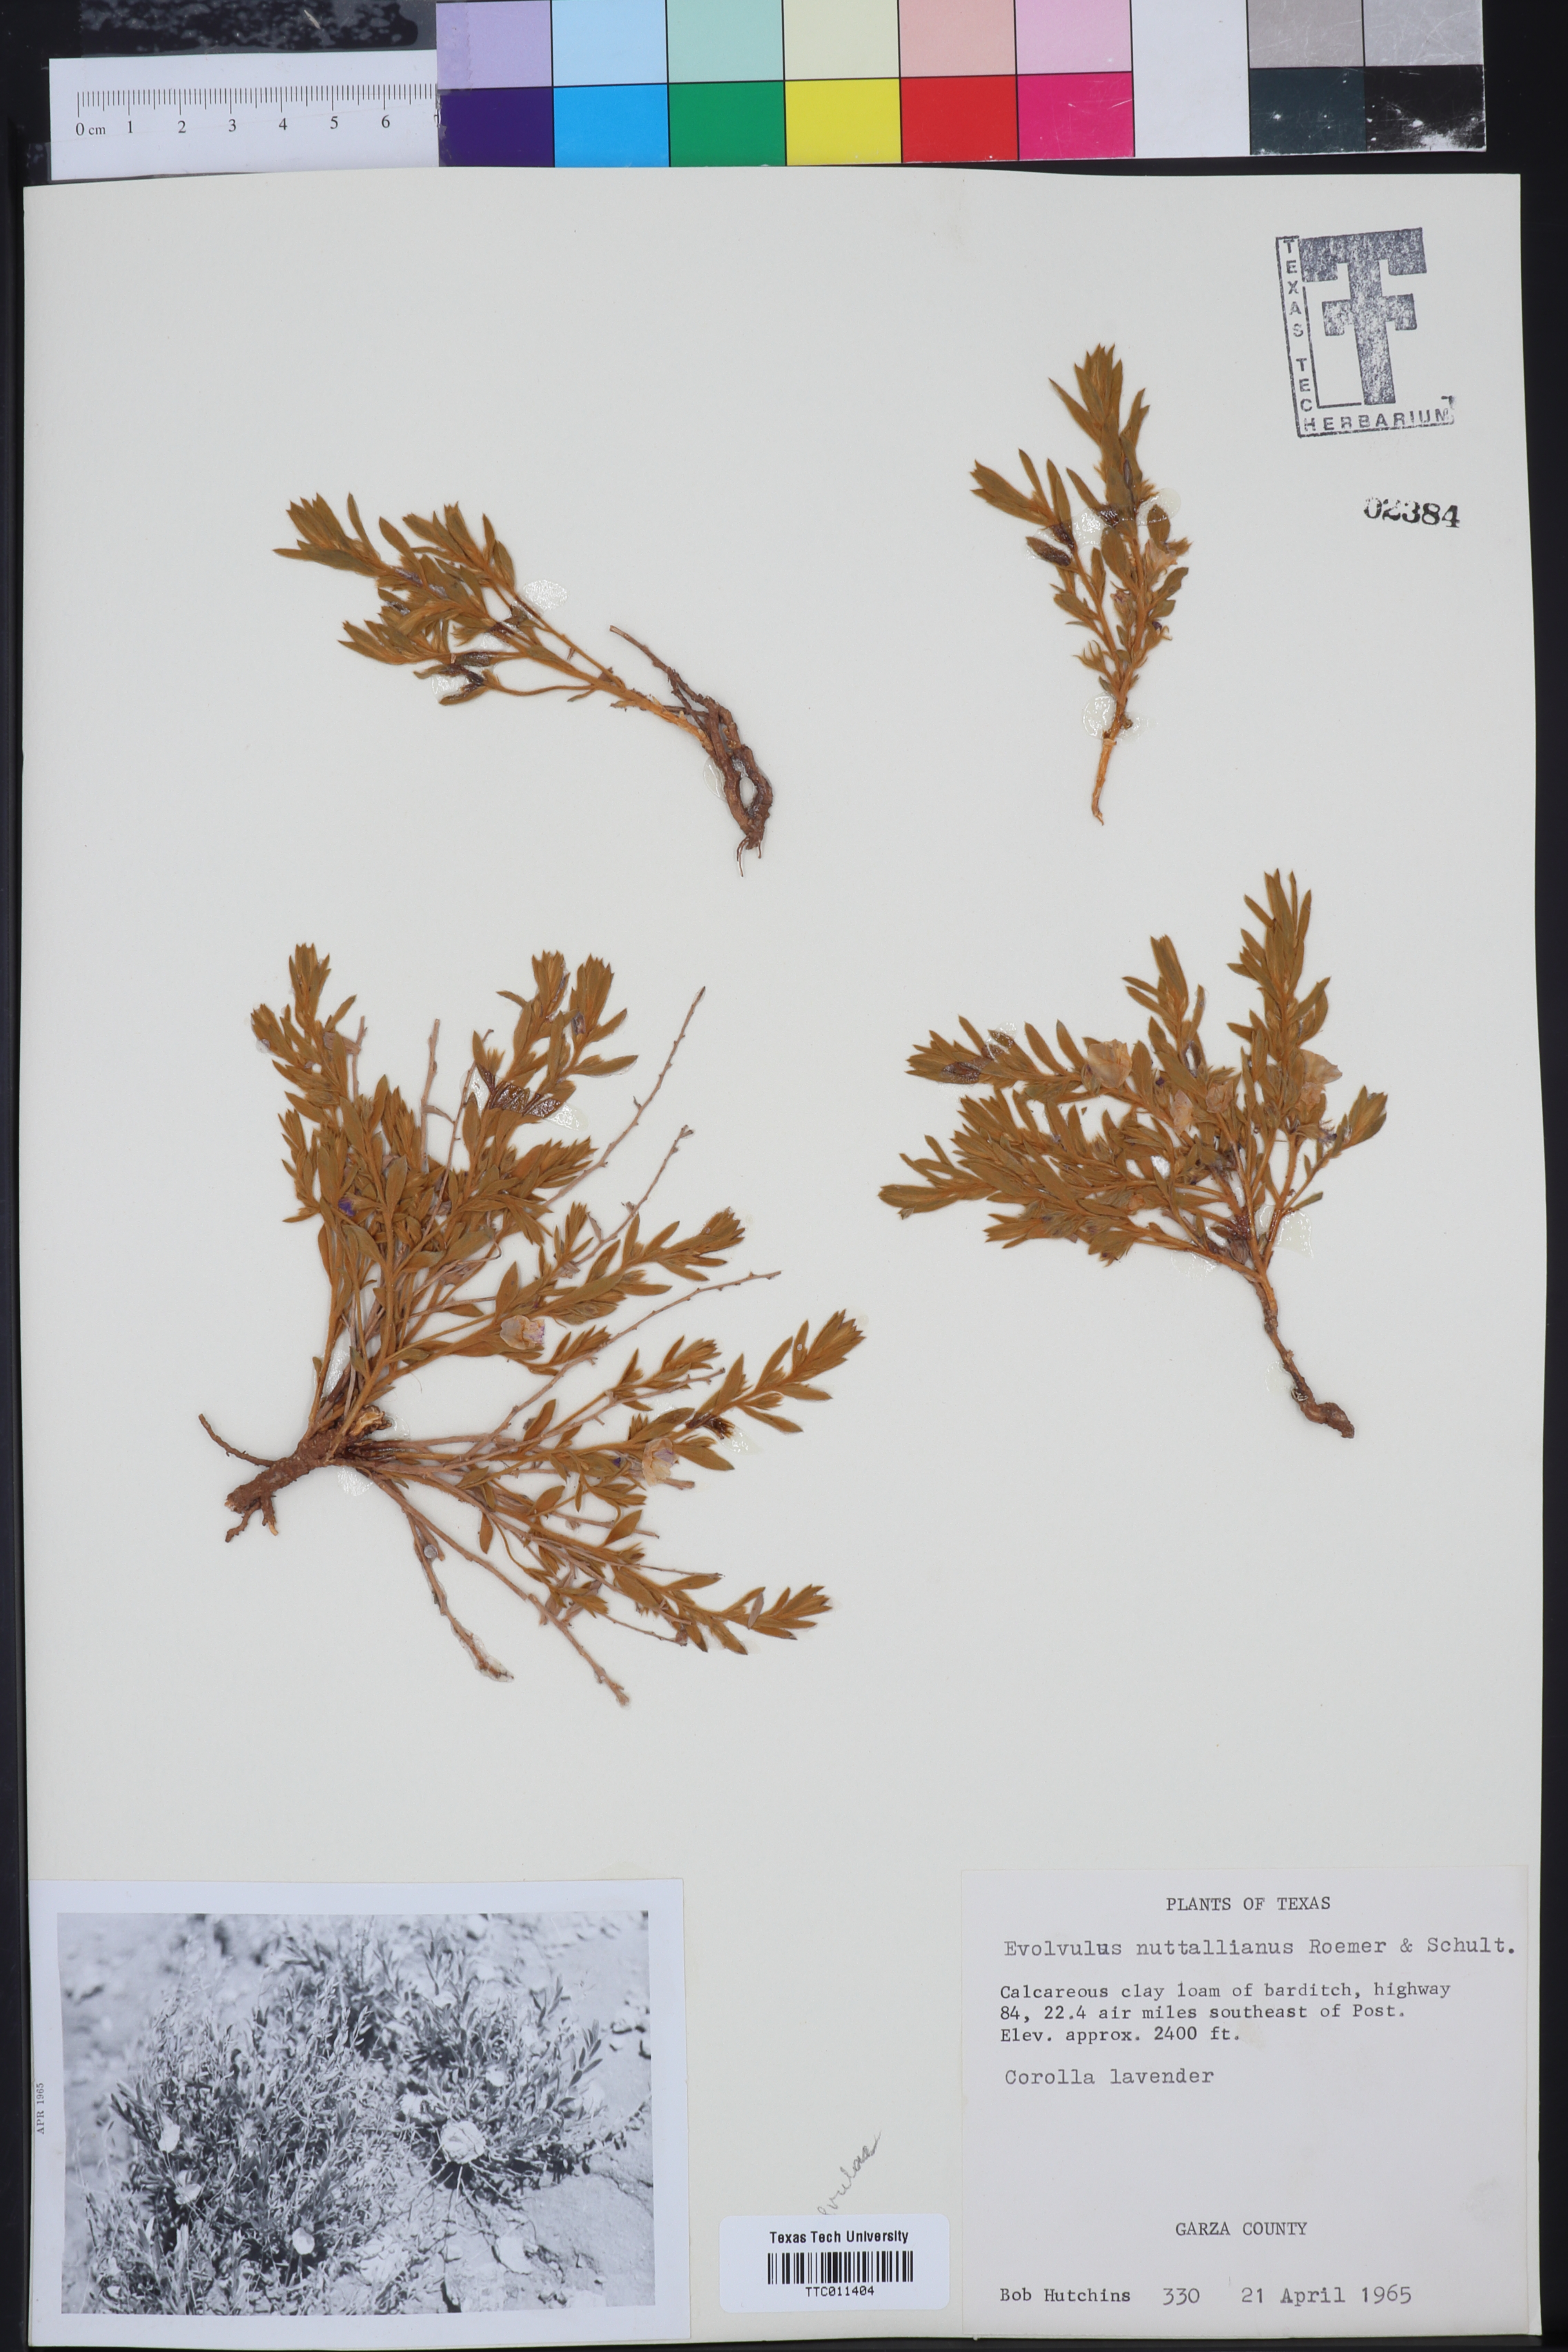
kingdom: Plantae
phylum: Tracheophyta
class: Magnoliopsida
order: Solanales
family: Convolvulaceae
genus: Evolvulus
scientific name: Evolvulus nuttallianus
